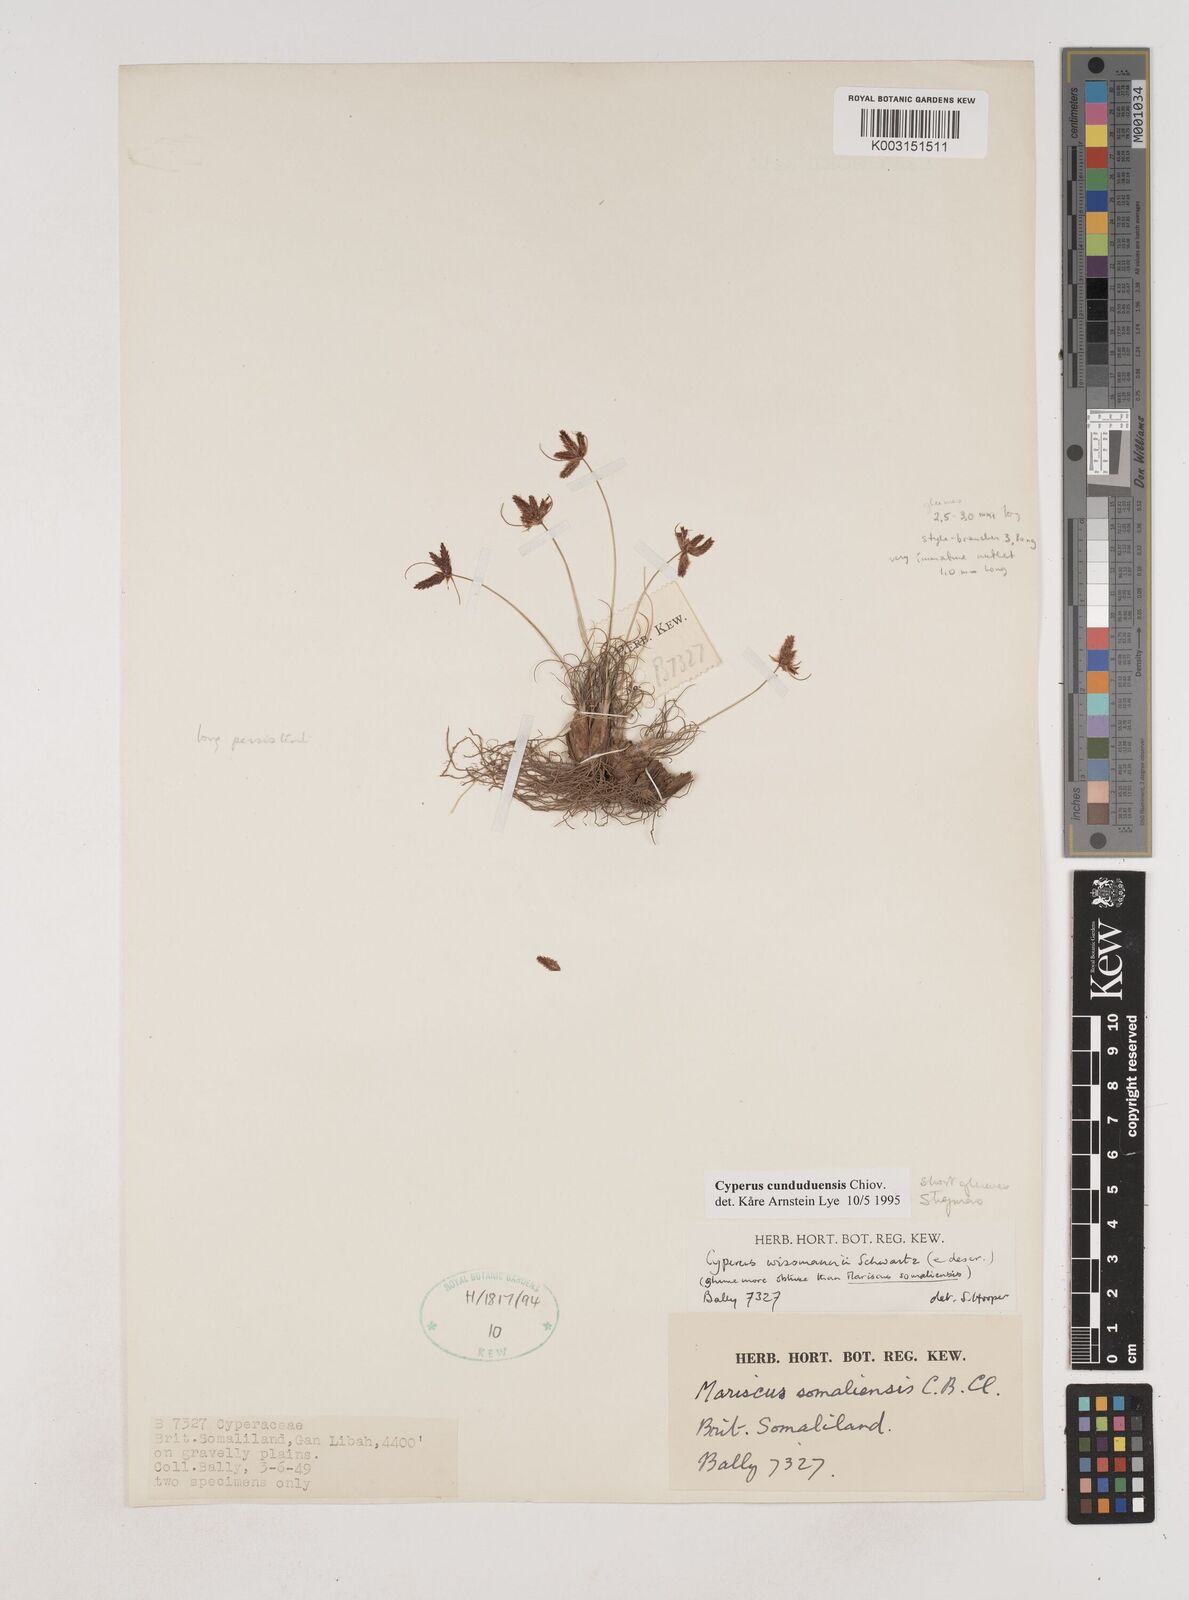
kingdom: Plantae
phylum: Tracheophyta
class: Liliopsida
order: Poales
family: Cyperaceae
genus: Cyperus
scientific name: Cyperus
